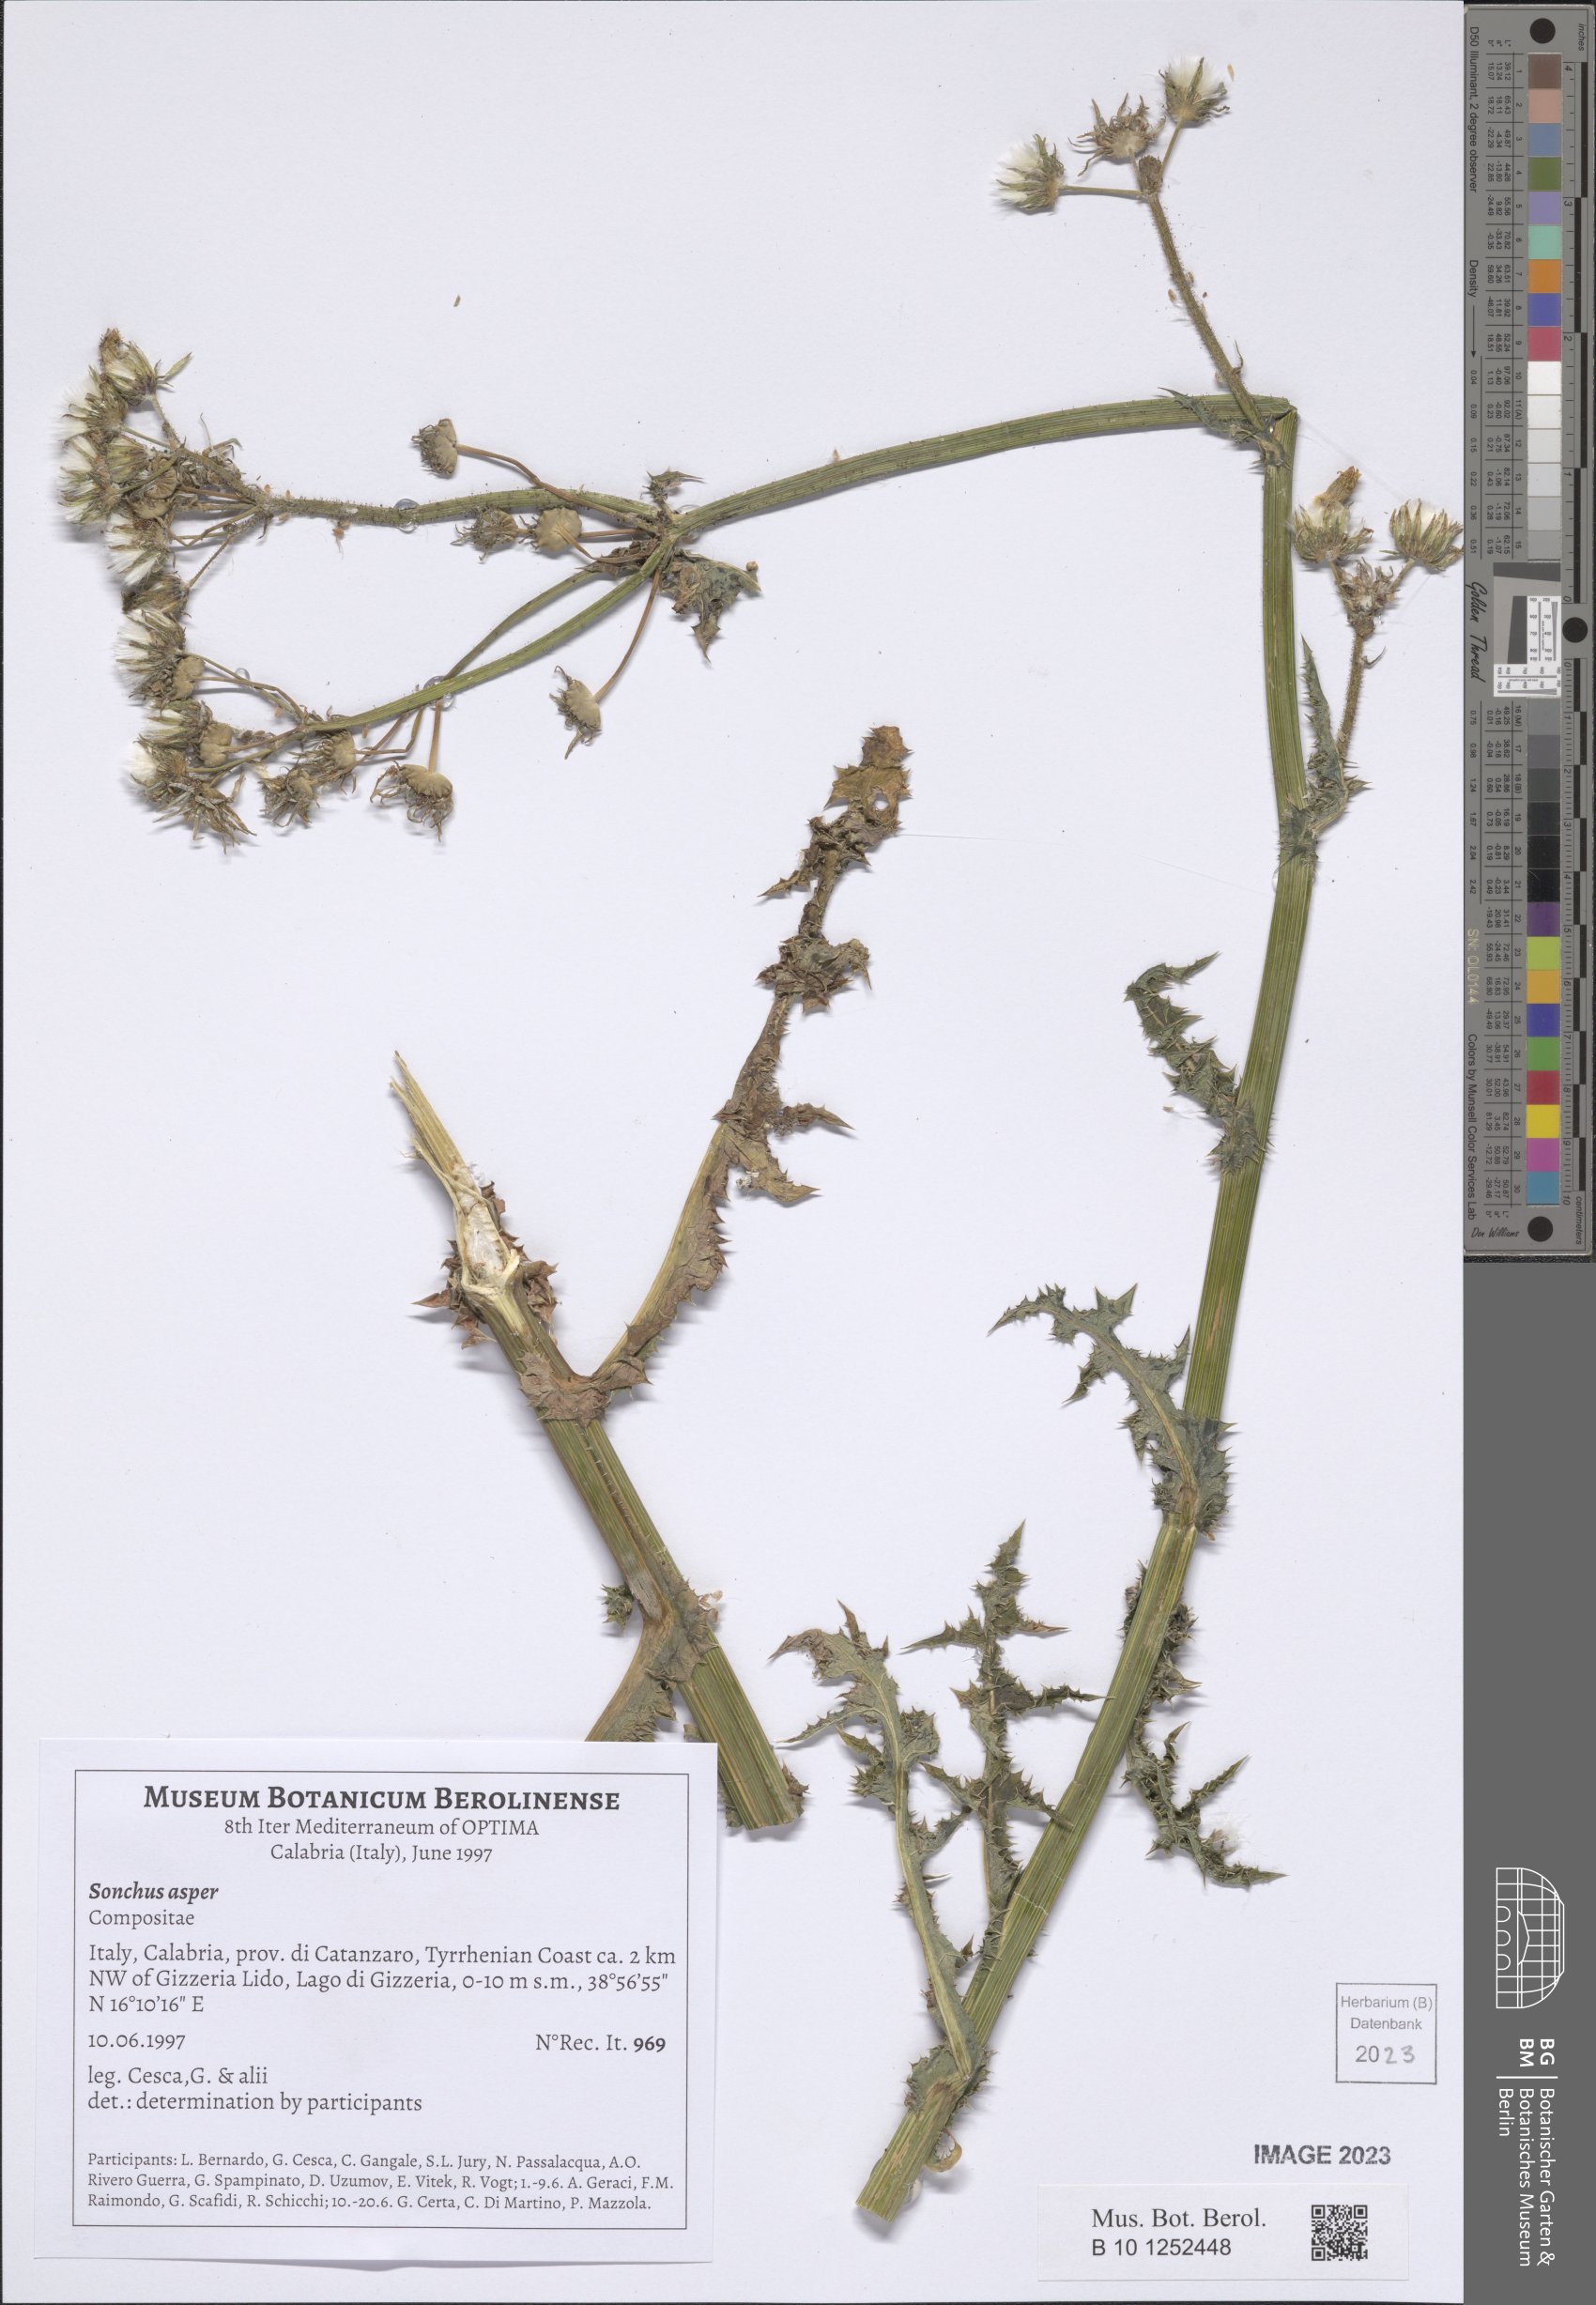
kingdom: Plantae
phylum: Tracheophyta
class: Magnoliopsida
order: Asterales
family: Asteraceae
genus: Sonchus
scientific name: Sonchus asper
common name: Prickly sow-thistle
